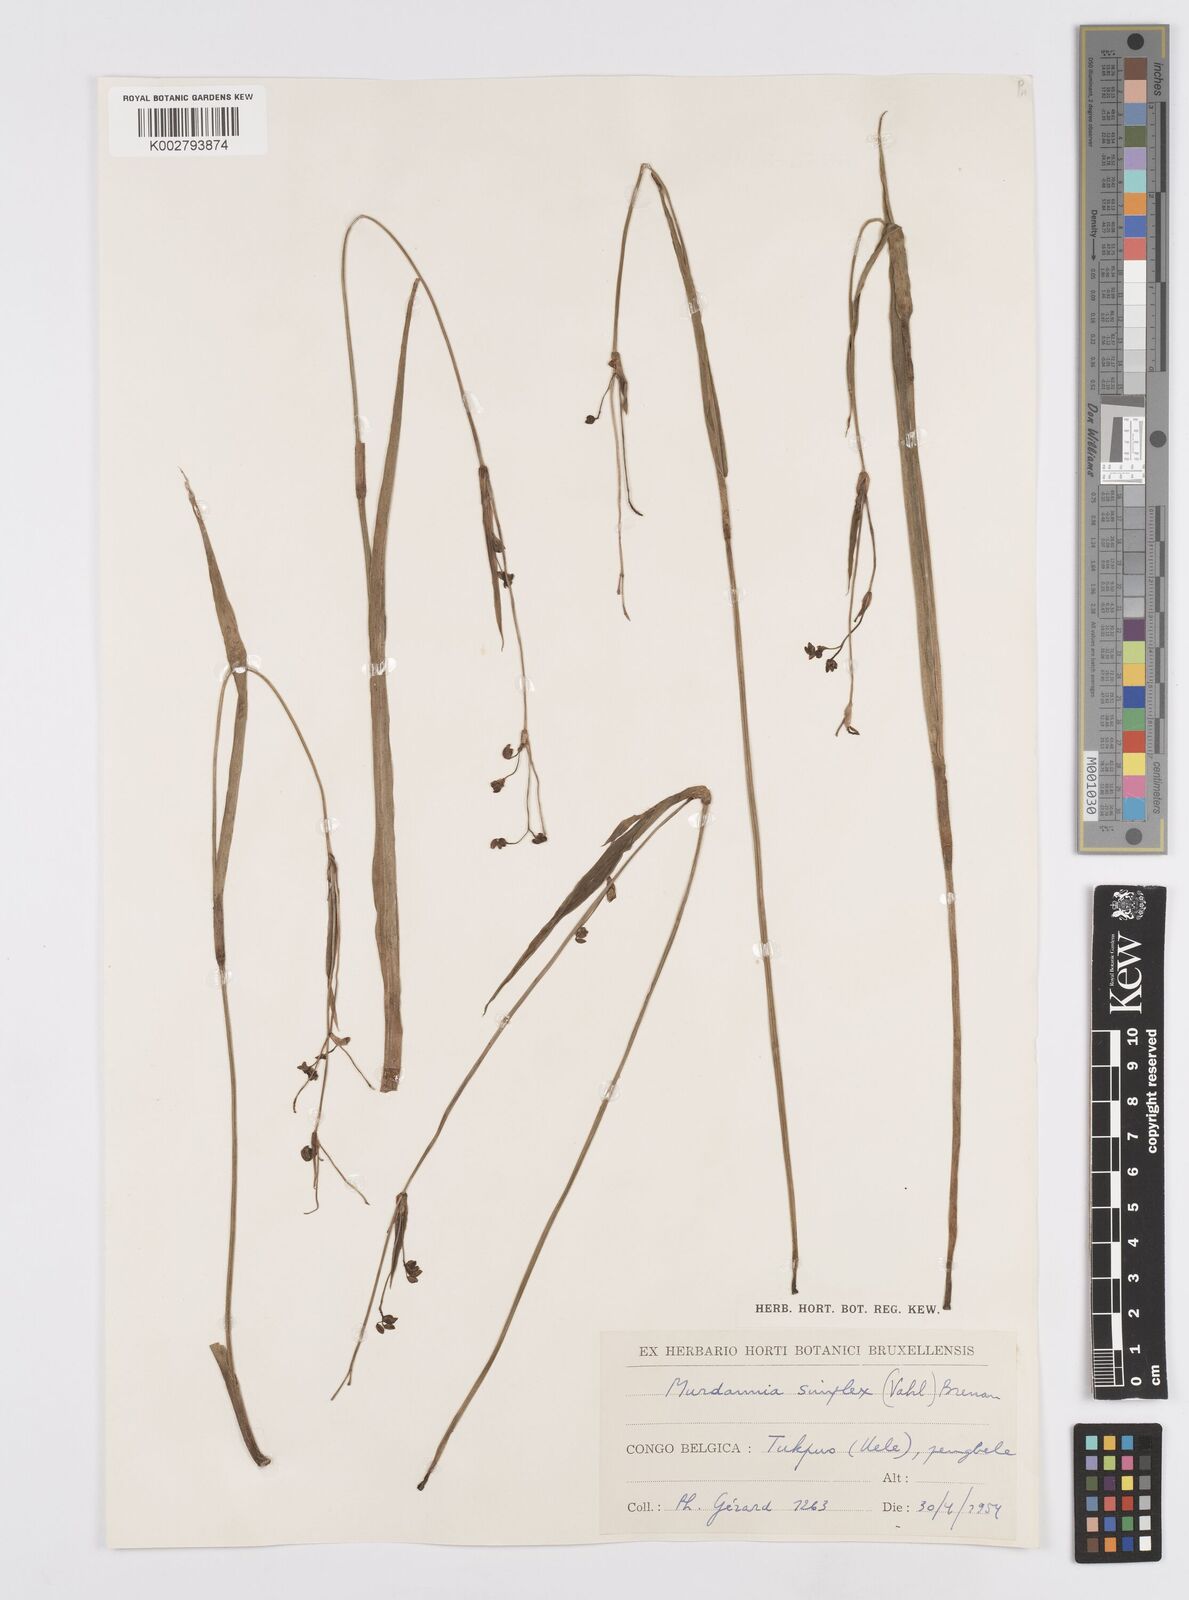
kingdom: Plantae
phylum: Tracheophyta
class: Liliopsida
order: Commelinales
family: Commelinaceae
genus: Murdannia
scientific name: Murdannia simplex
